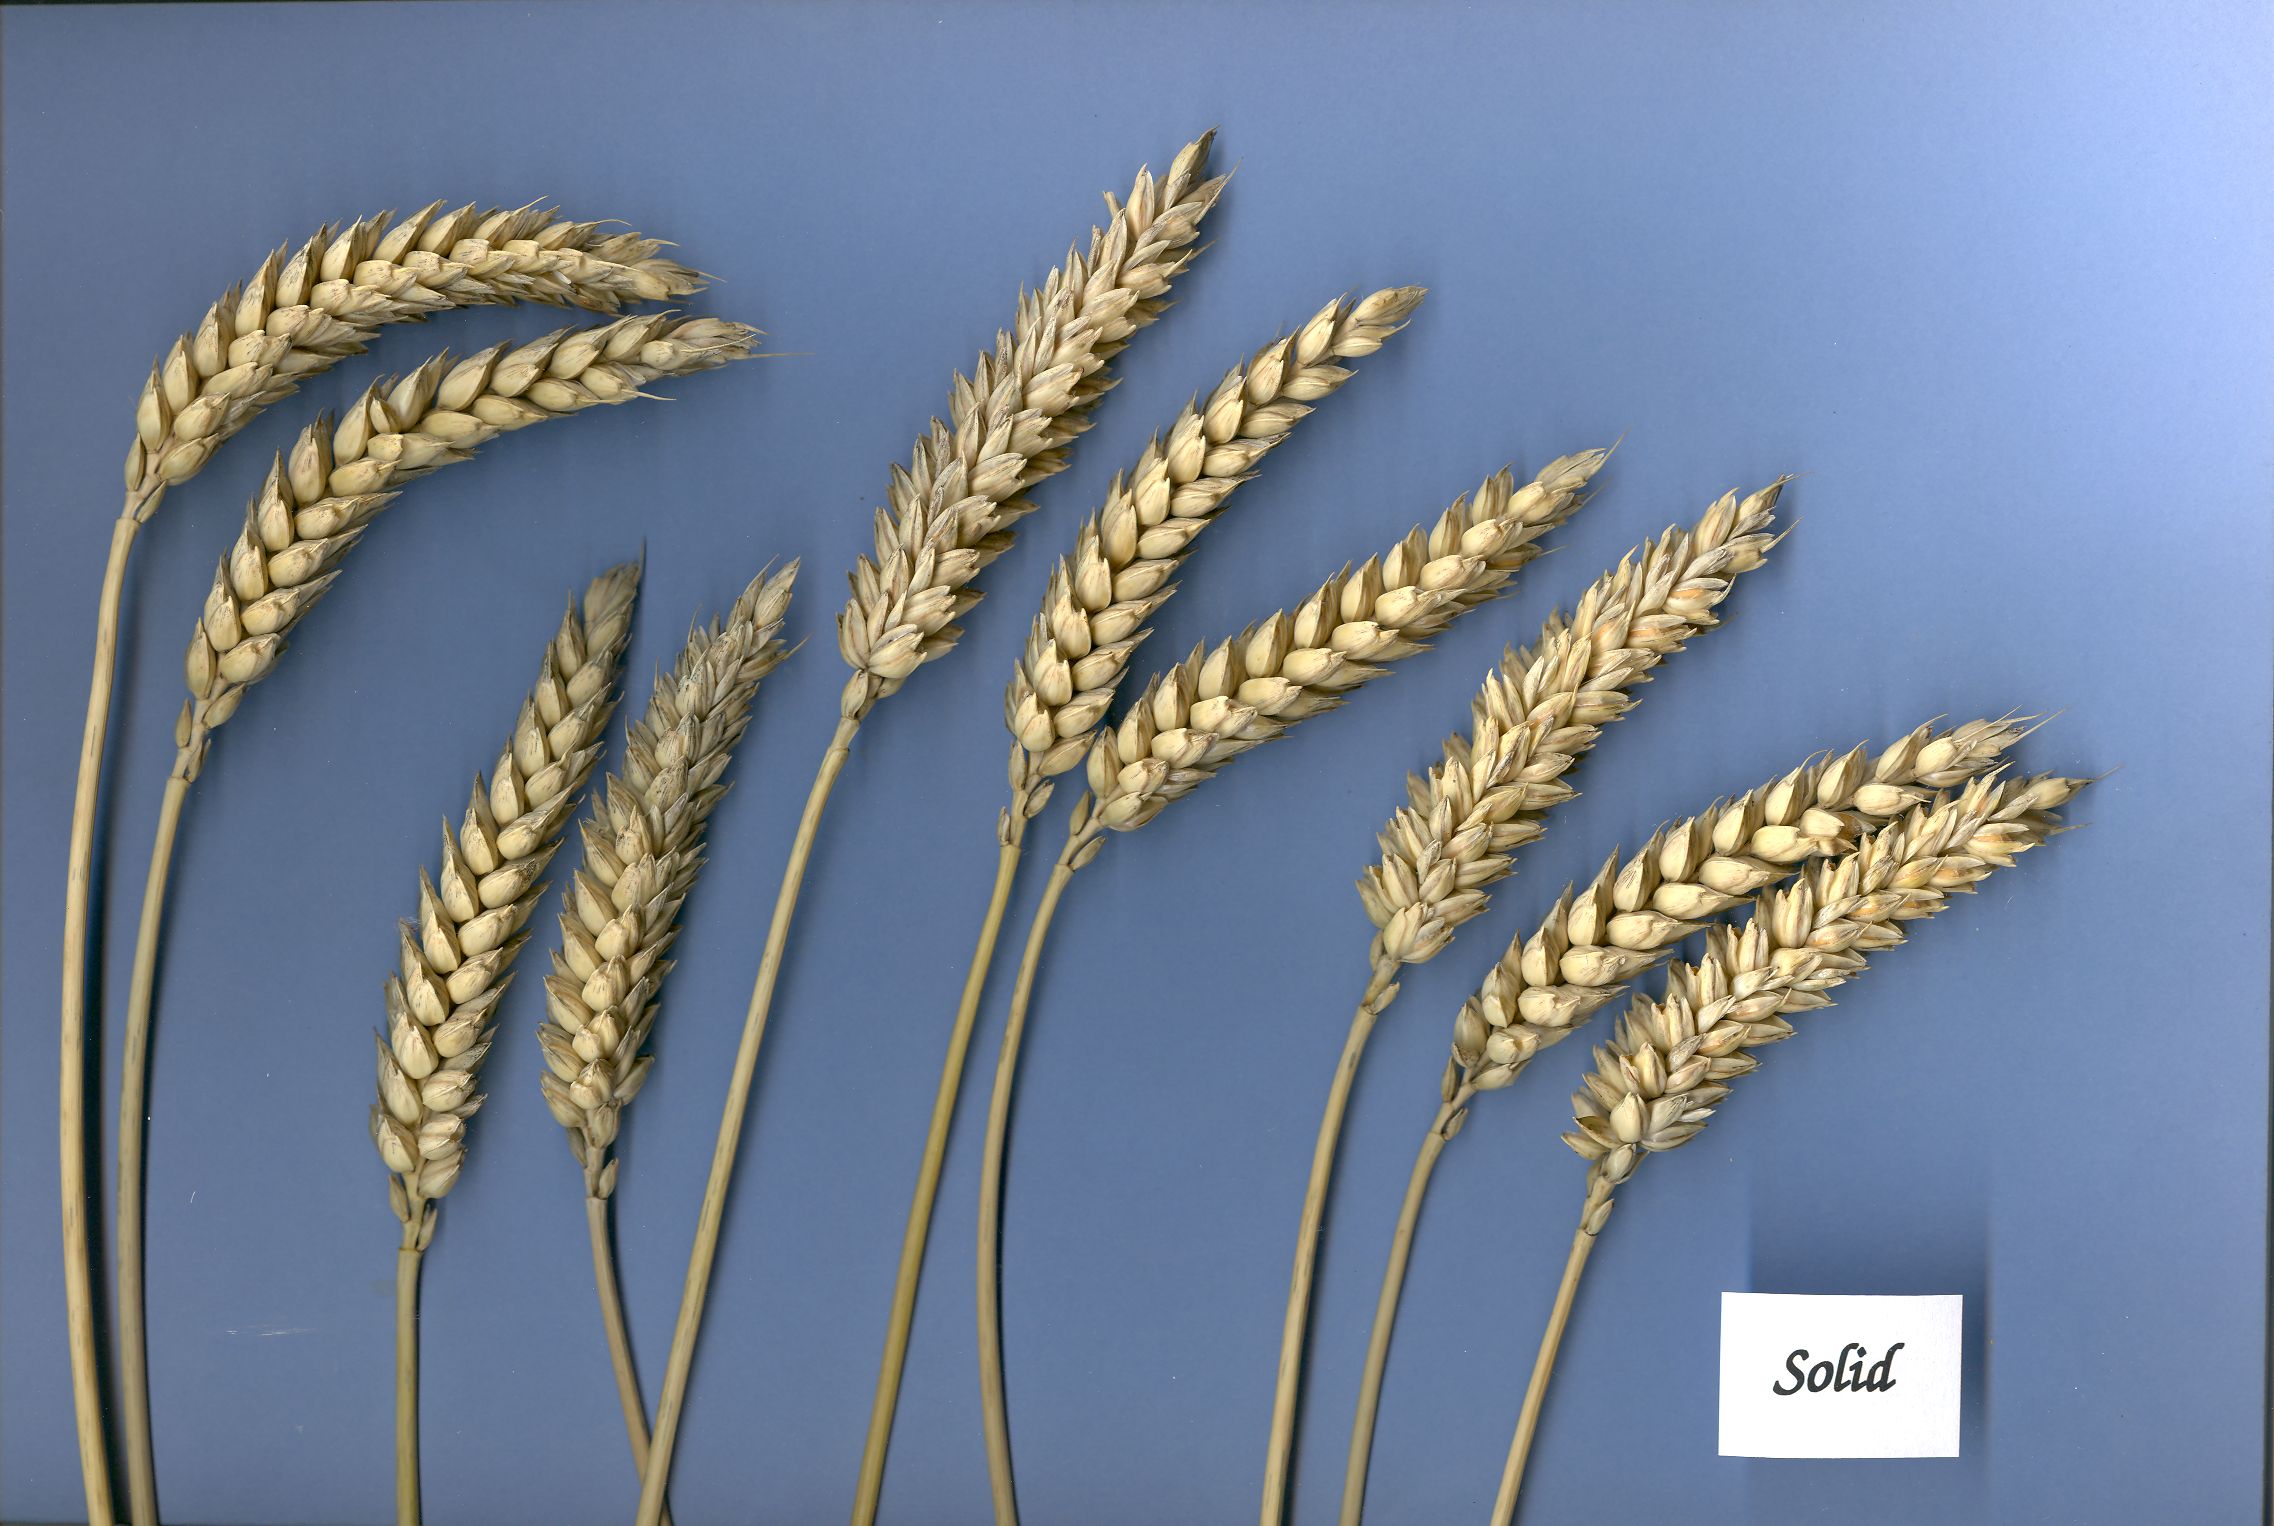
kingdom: Plantae
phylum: Tracheophyta
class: Liliopsida
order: Poales
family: Poaceae
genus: Triticum
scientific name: Triticum aestivum
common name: Common wheat
